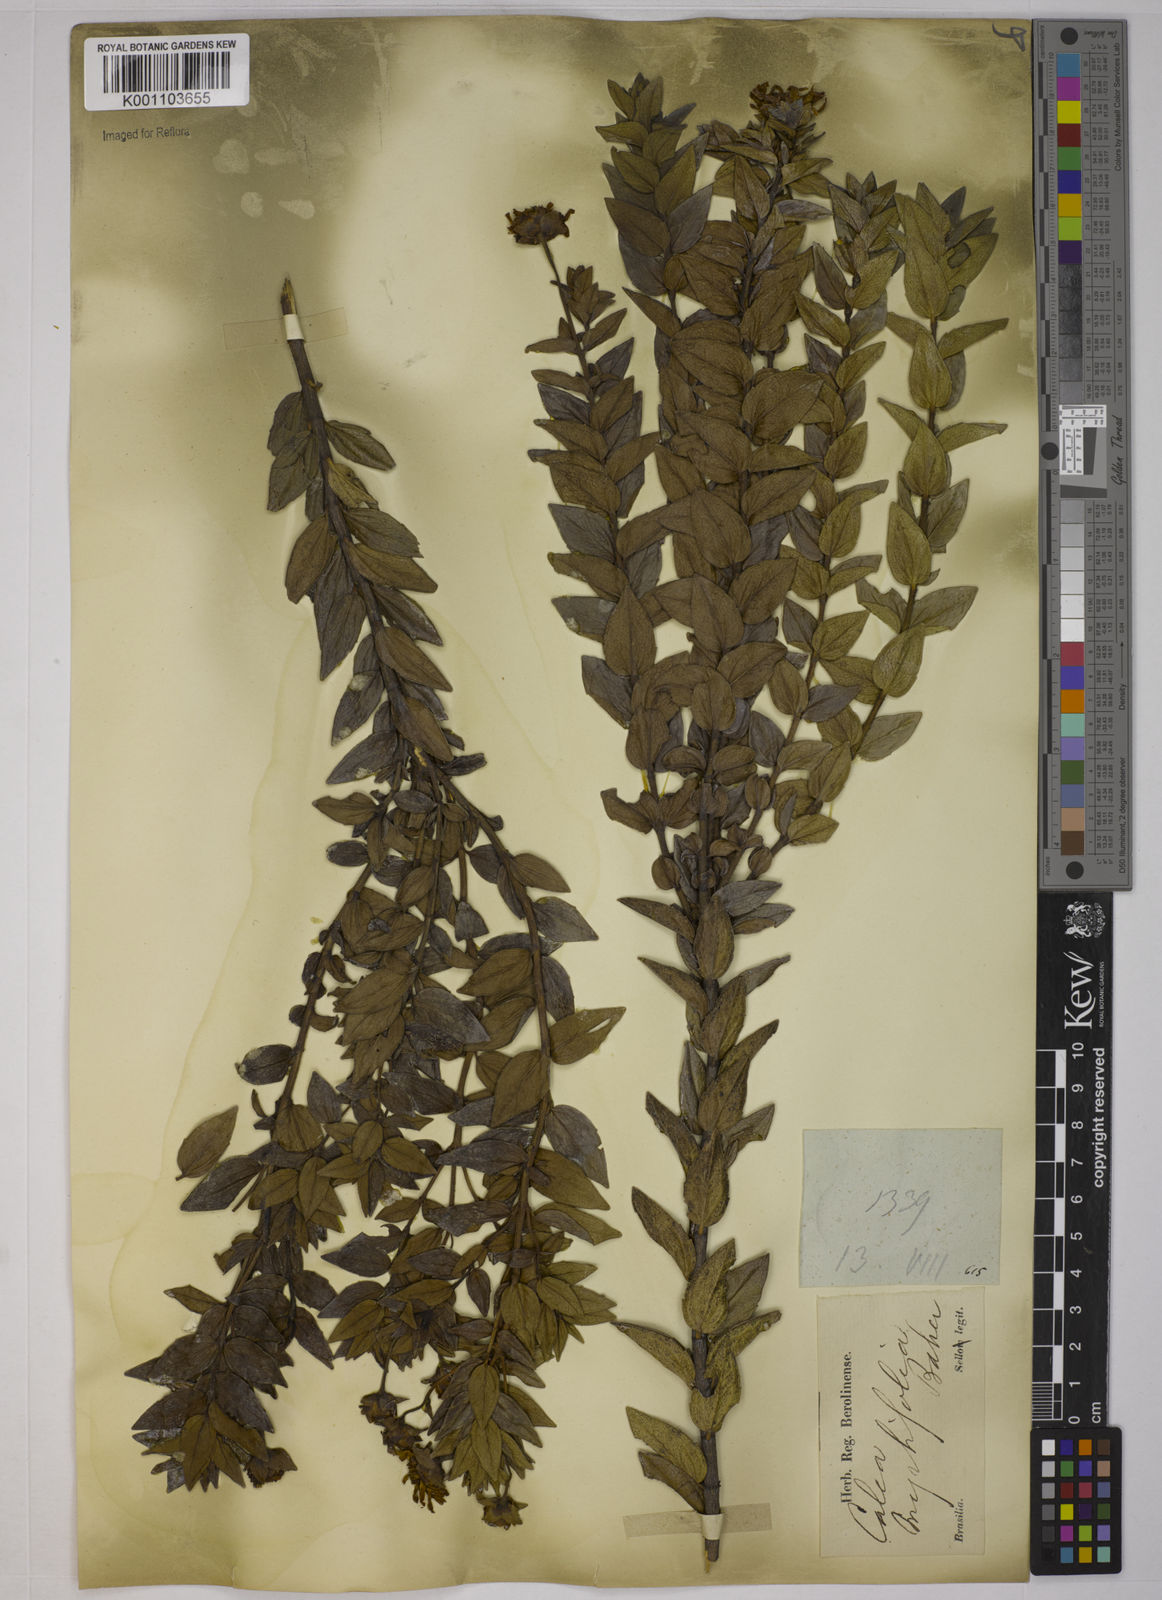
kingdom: Plantae
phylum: Tracheophyta
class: Magnoliopsida
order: Asterales
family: Asteraceae
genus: Calea
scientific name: Calea myrtifolia
